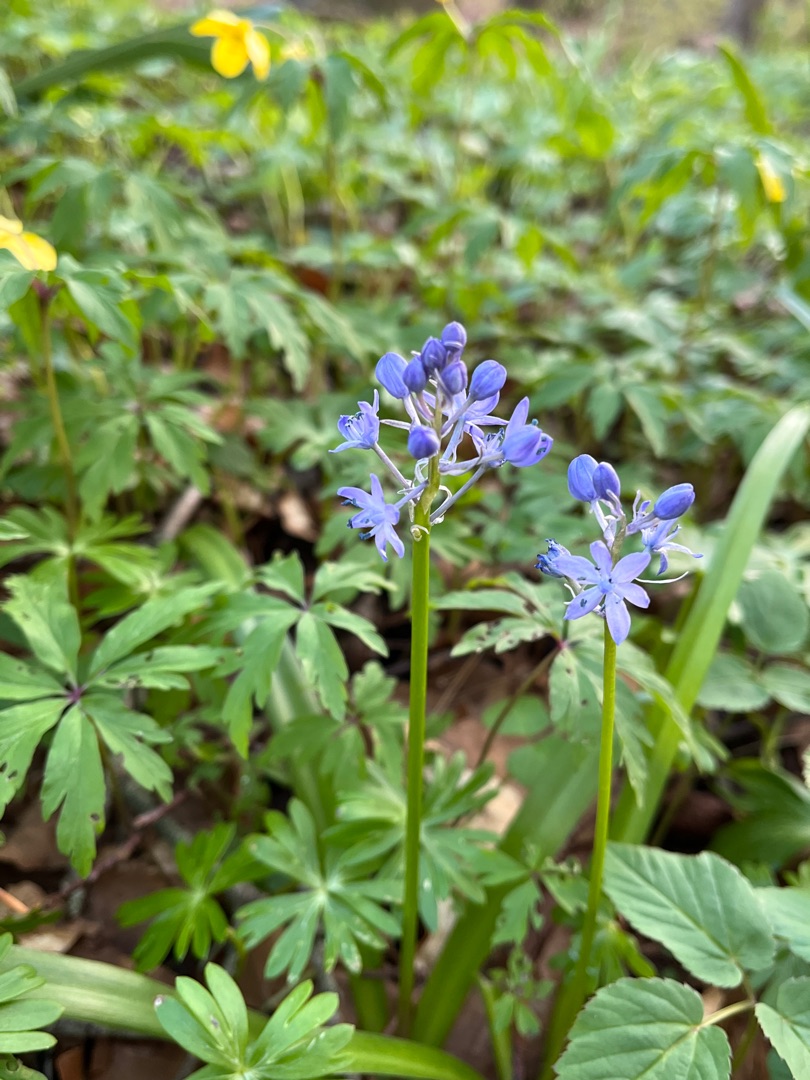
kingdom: Plantae
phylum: Tracheophyta
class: Liliopsida
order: Asparagales
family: Asparagaceae
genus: Hyacinthoides
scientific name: Hyacinthoides italica
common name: Italiensk skilla
